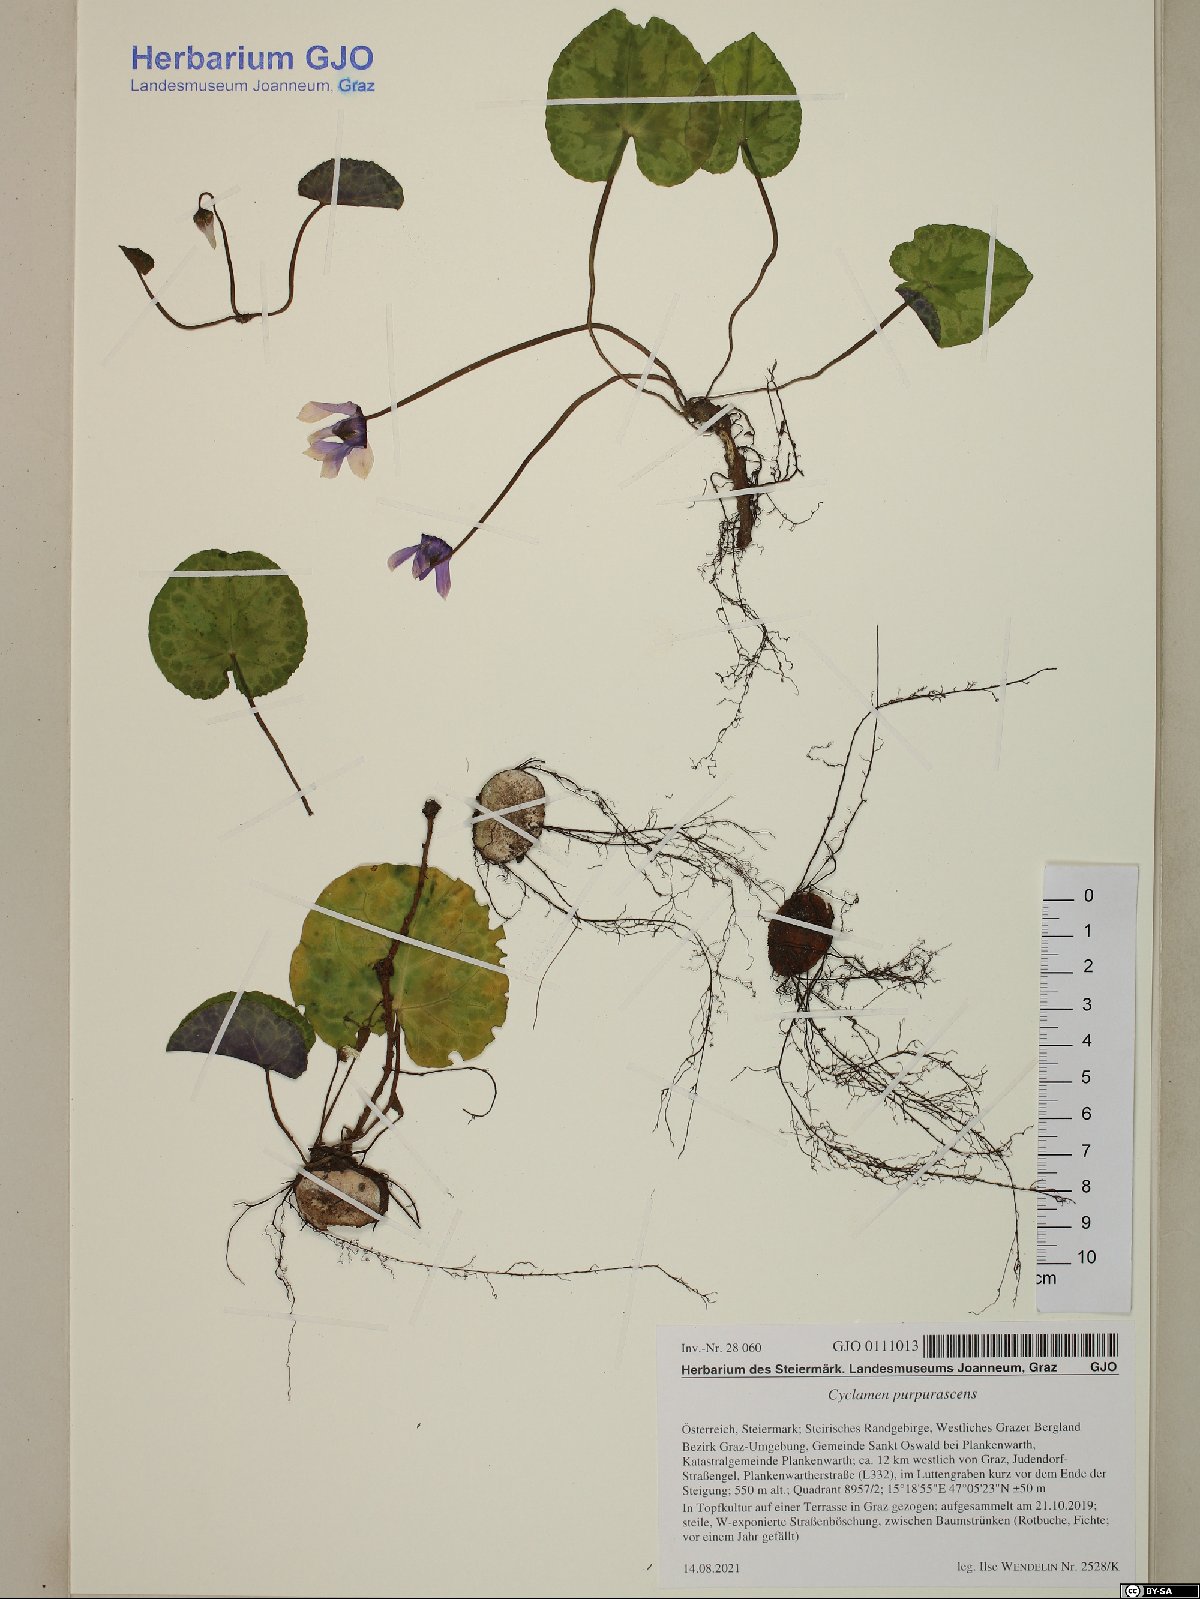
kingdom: Plantae
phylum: Tracheophyta
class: Magnoliopsida
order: Ericales
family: Primulaceae
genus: Cyclamen
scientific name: Cyclamen purpurascens
